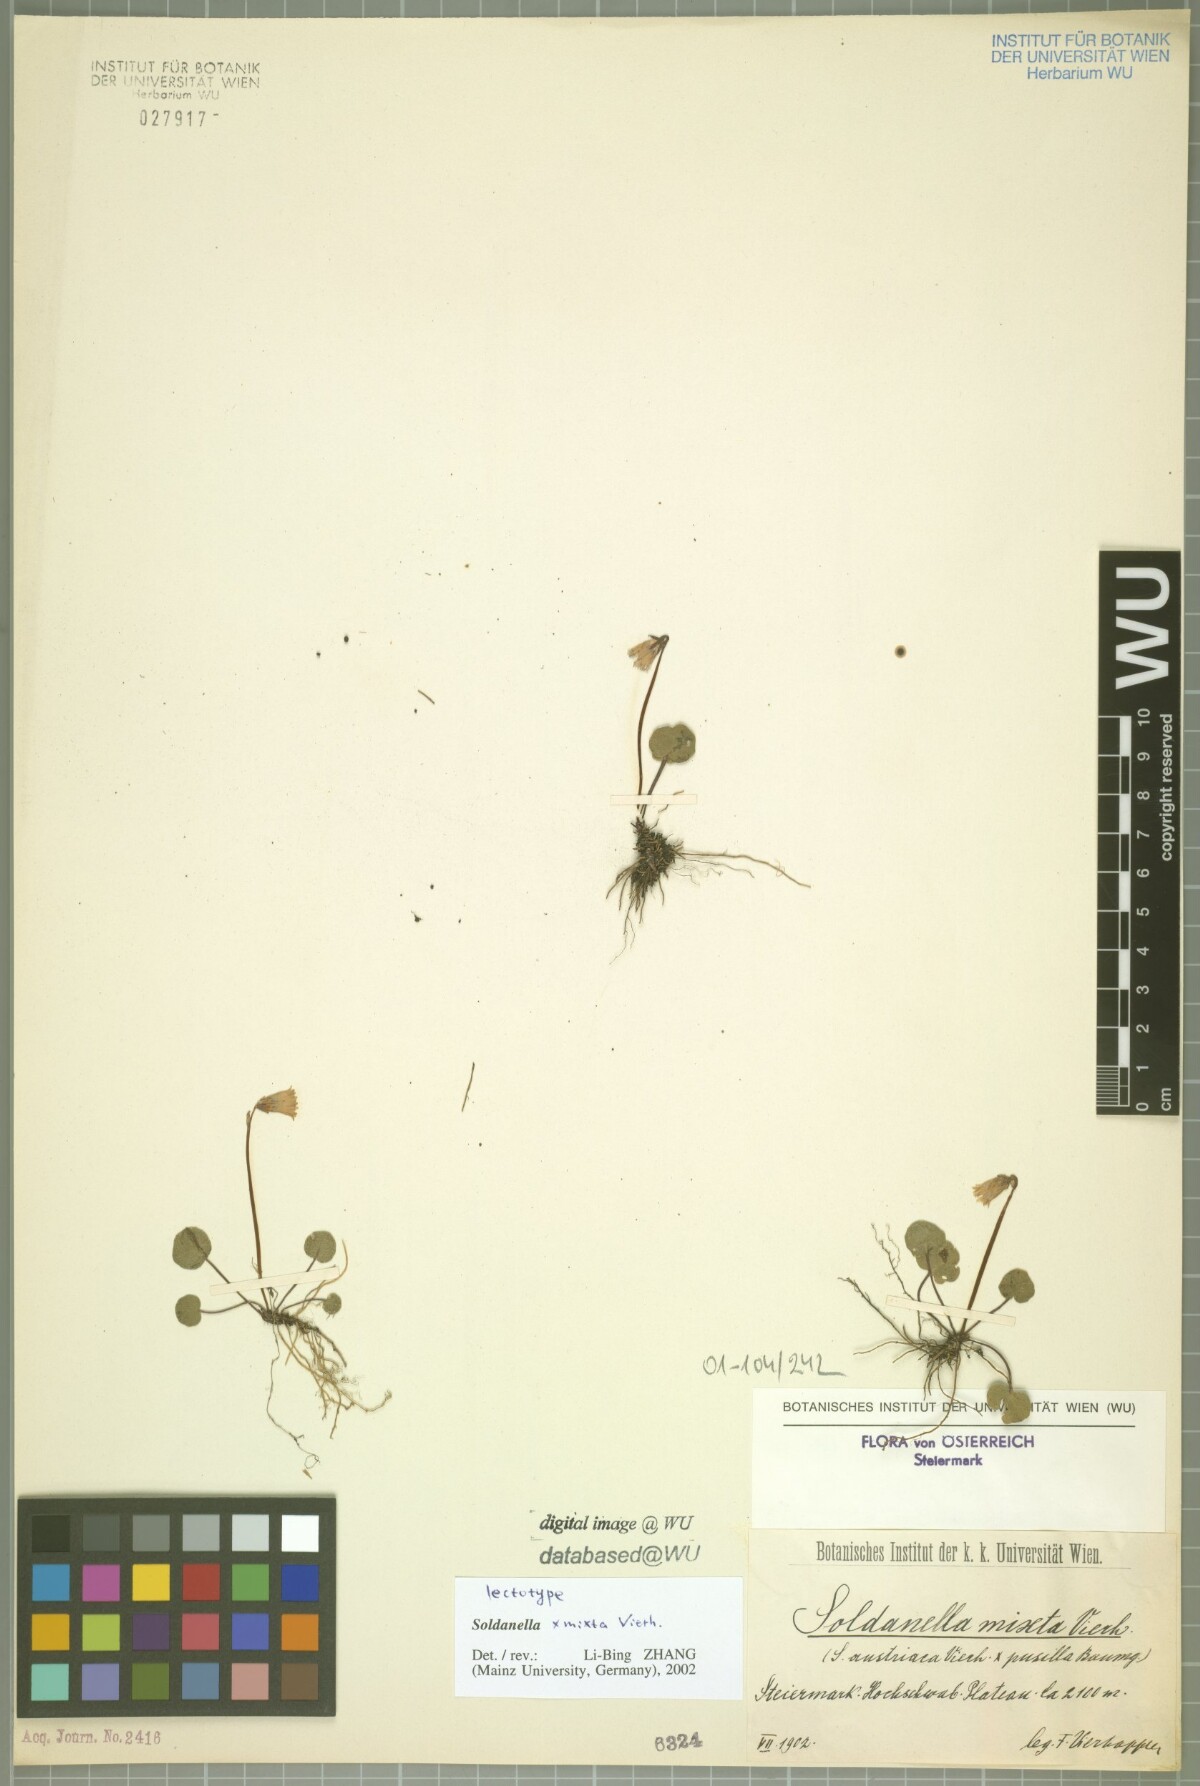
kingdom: Plantae
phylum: Tracheophyta
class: Magnoliopsida
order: Ericales
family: Primulaceae
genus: Soldanella
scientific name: Soldanella mixta
